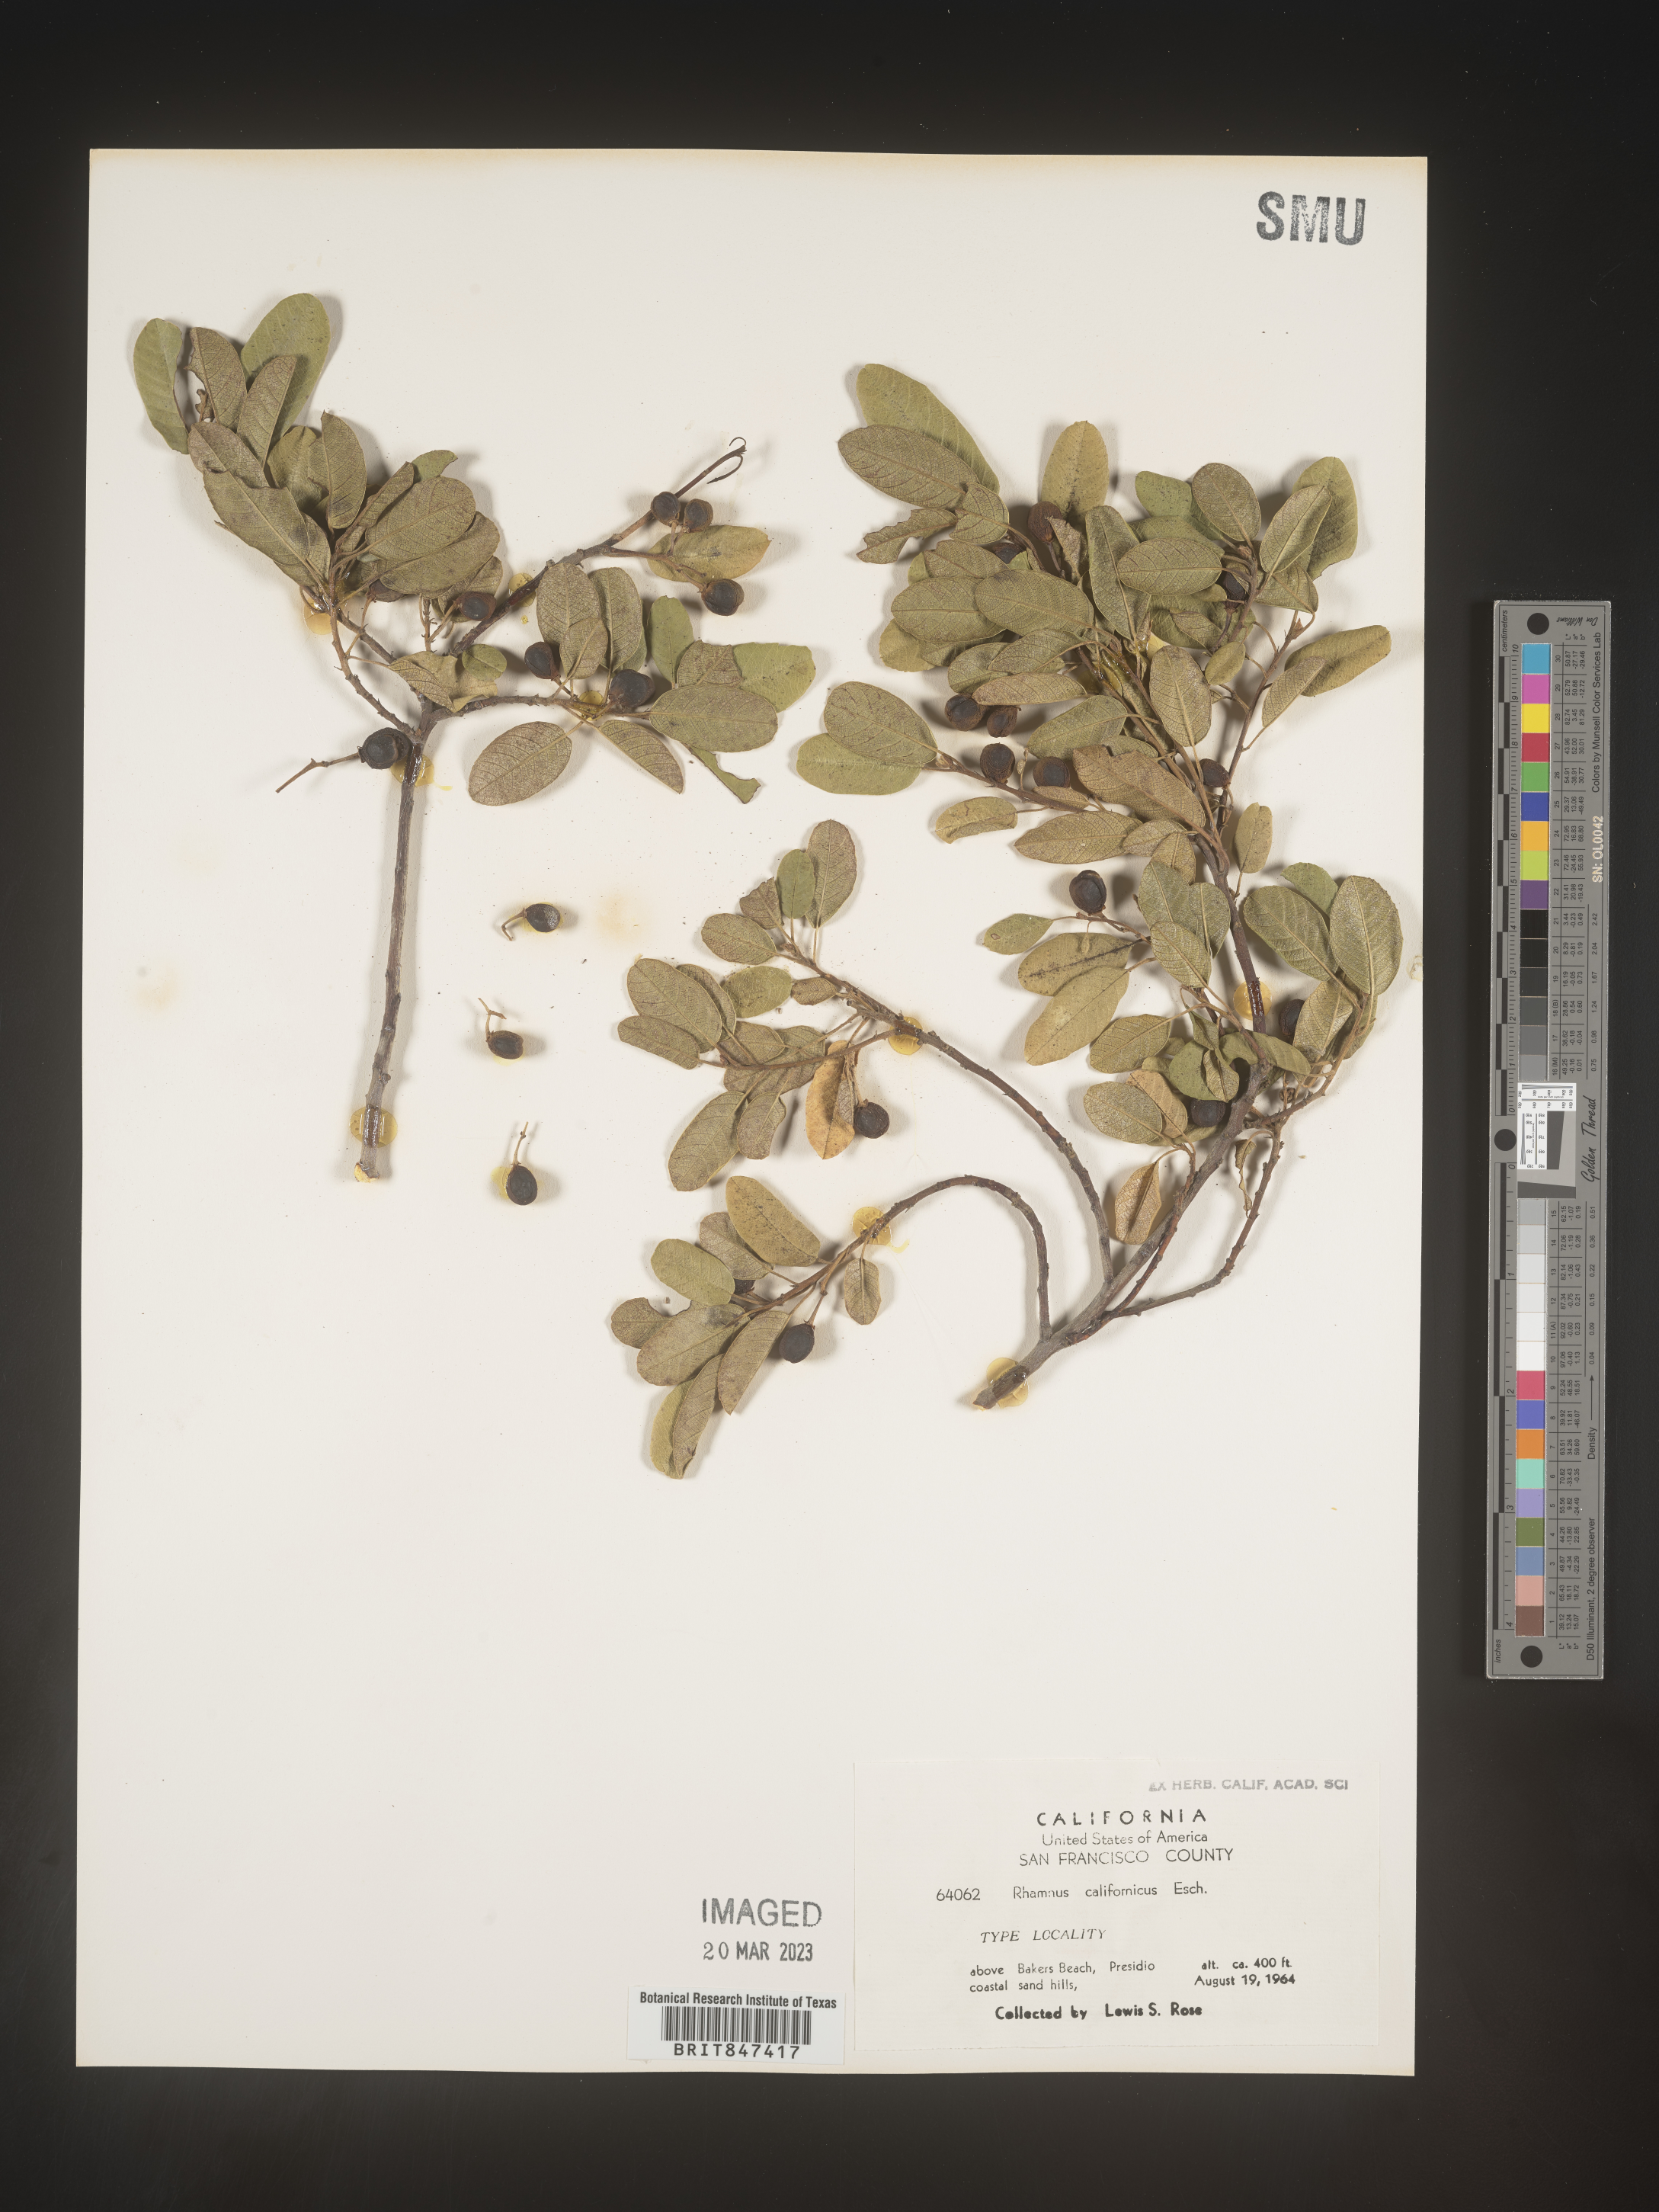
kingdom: Plantae
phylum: Tracheophyta
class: Magnoliopsida
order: Rosales
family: Rhamnaceae
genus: Frangula
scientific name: Frangula californica
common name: California buckthorn
